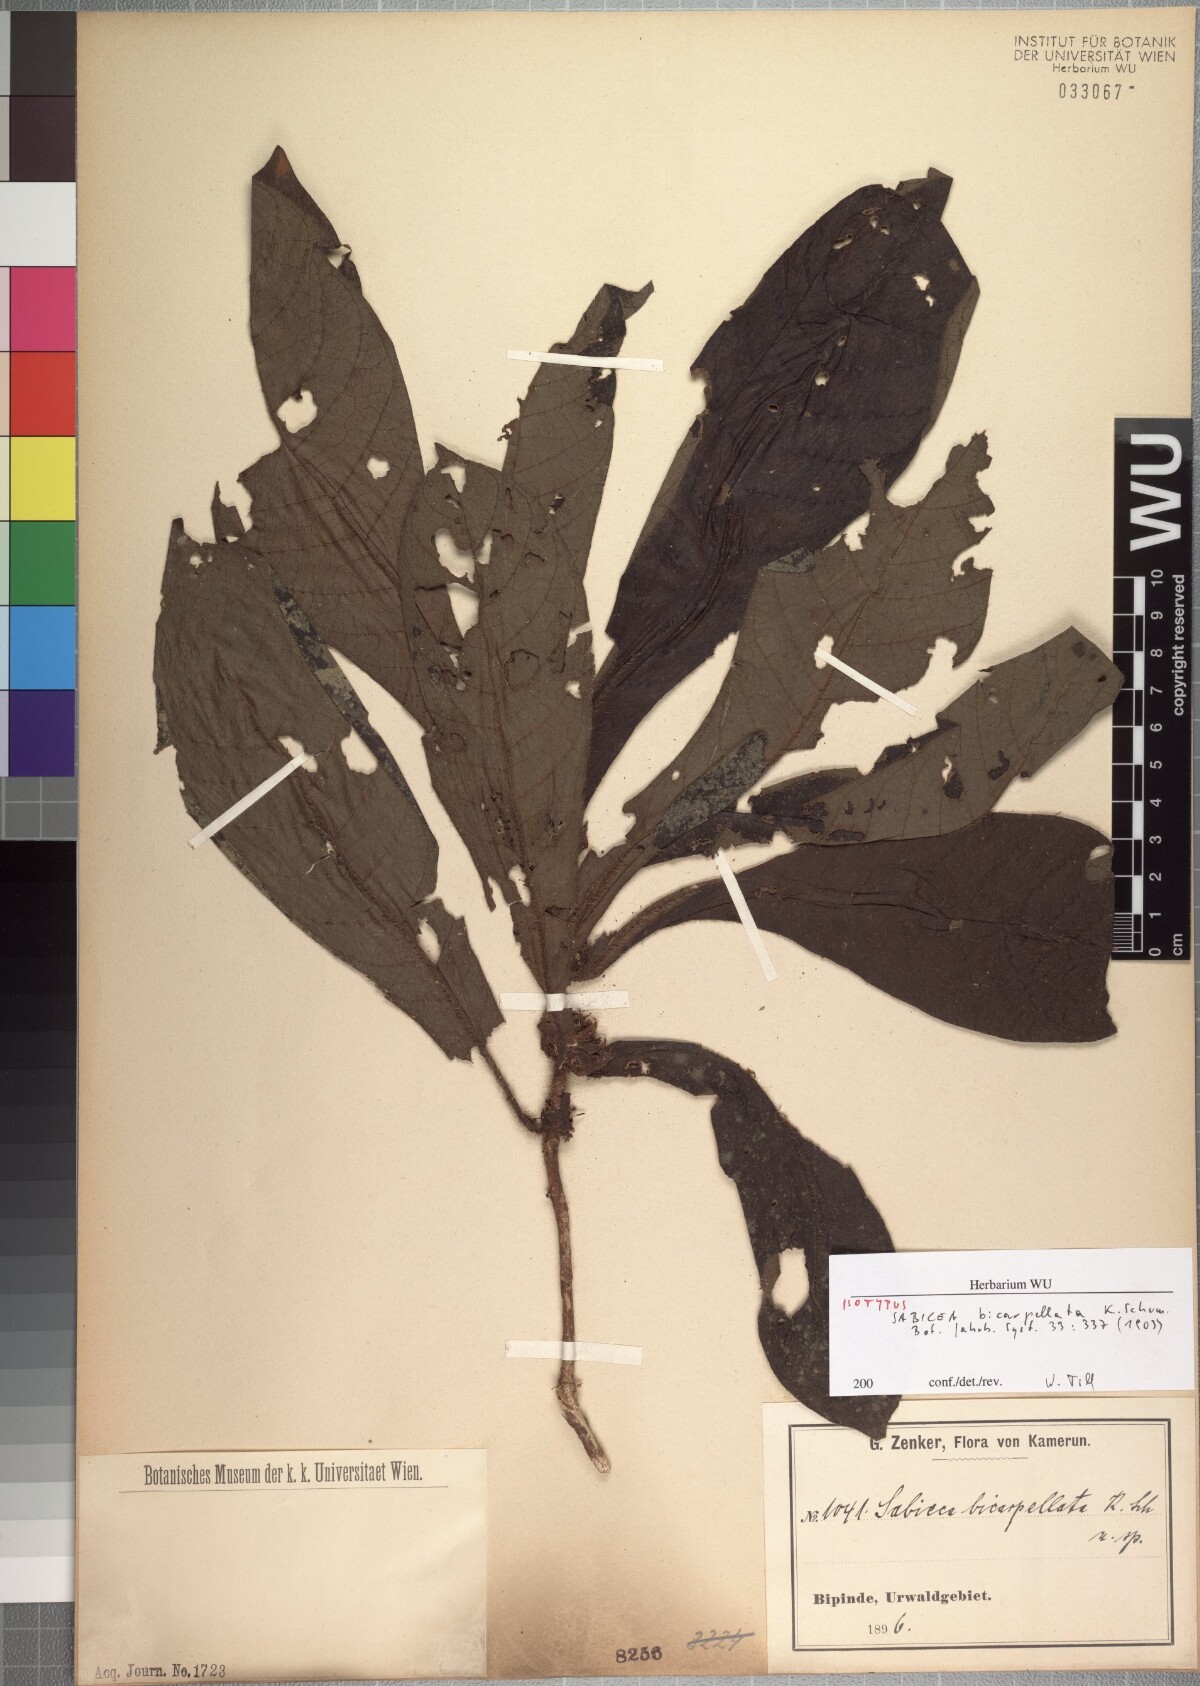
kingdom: Plantae
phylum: Tracheophyta
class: Magnoliopsida
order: Gentianales
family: Rubiaceae
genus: Bertiera
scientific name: Bertiera bicarpellata
